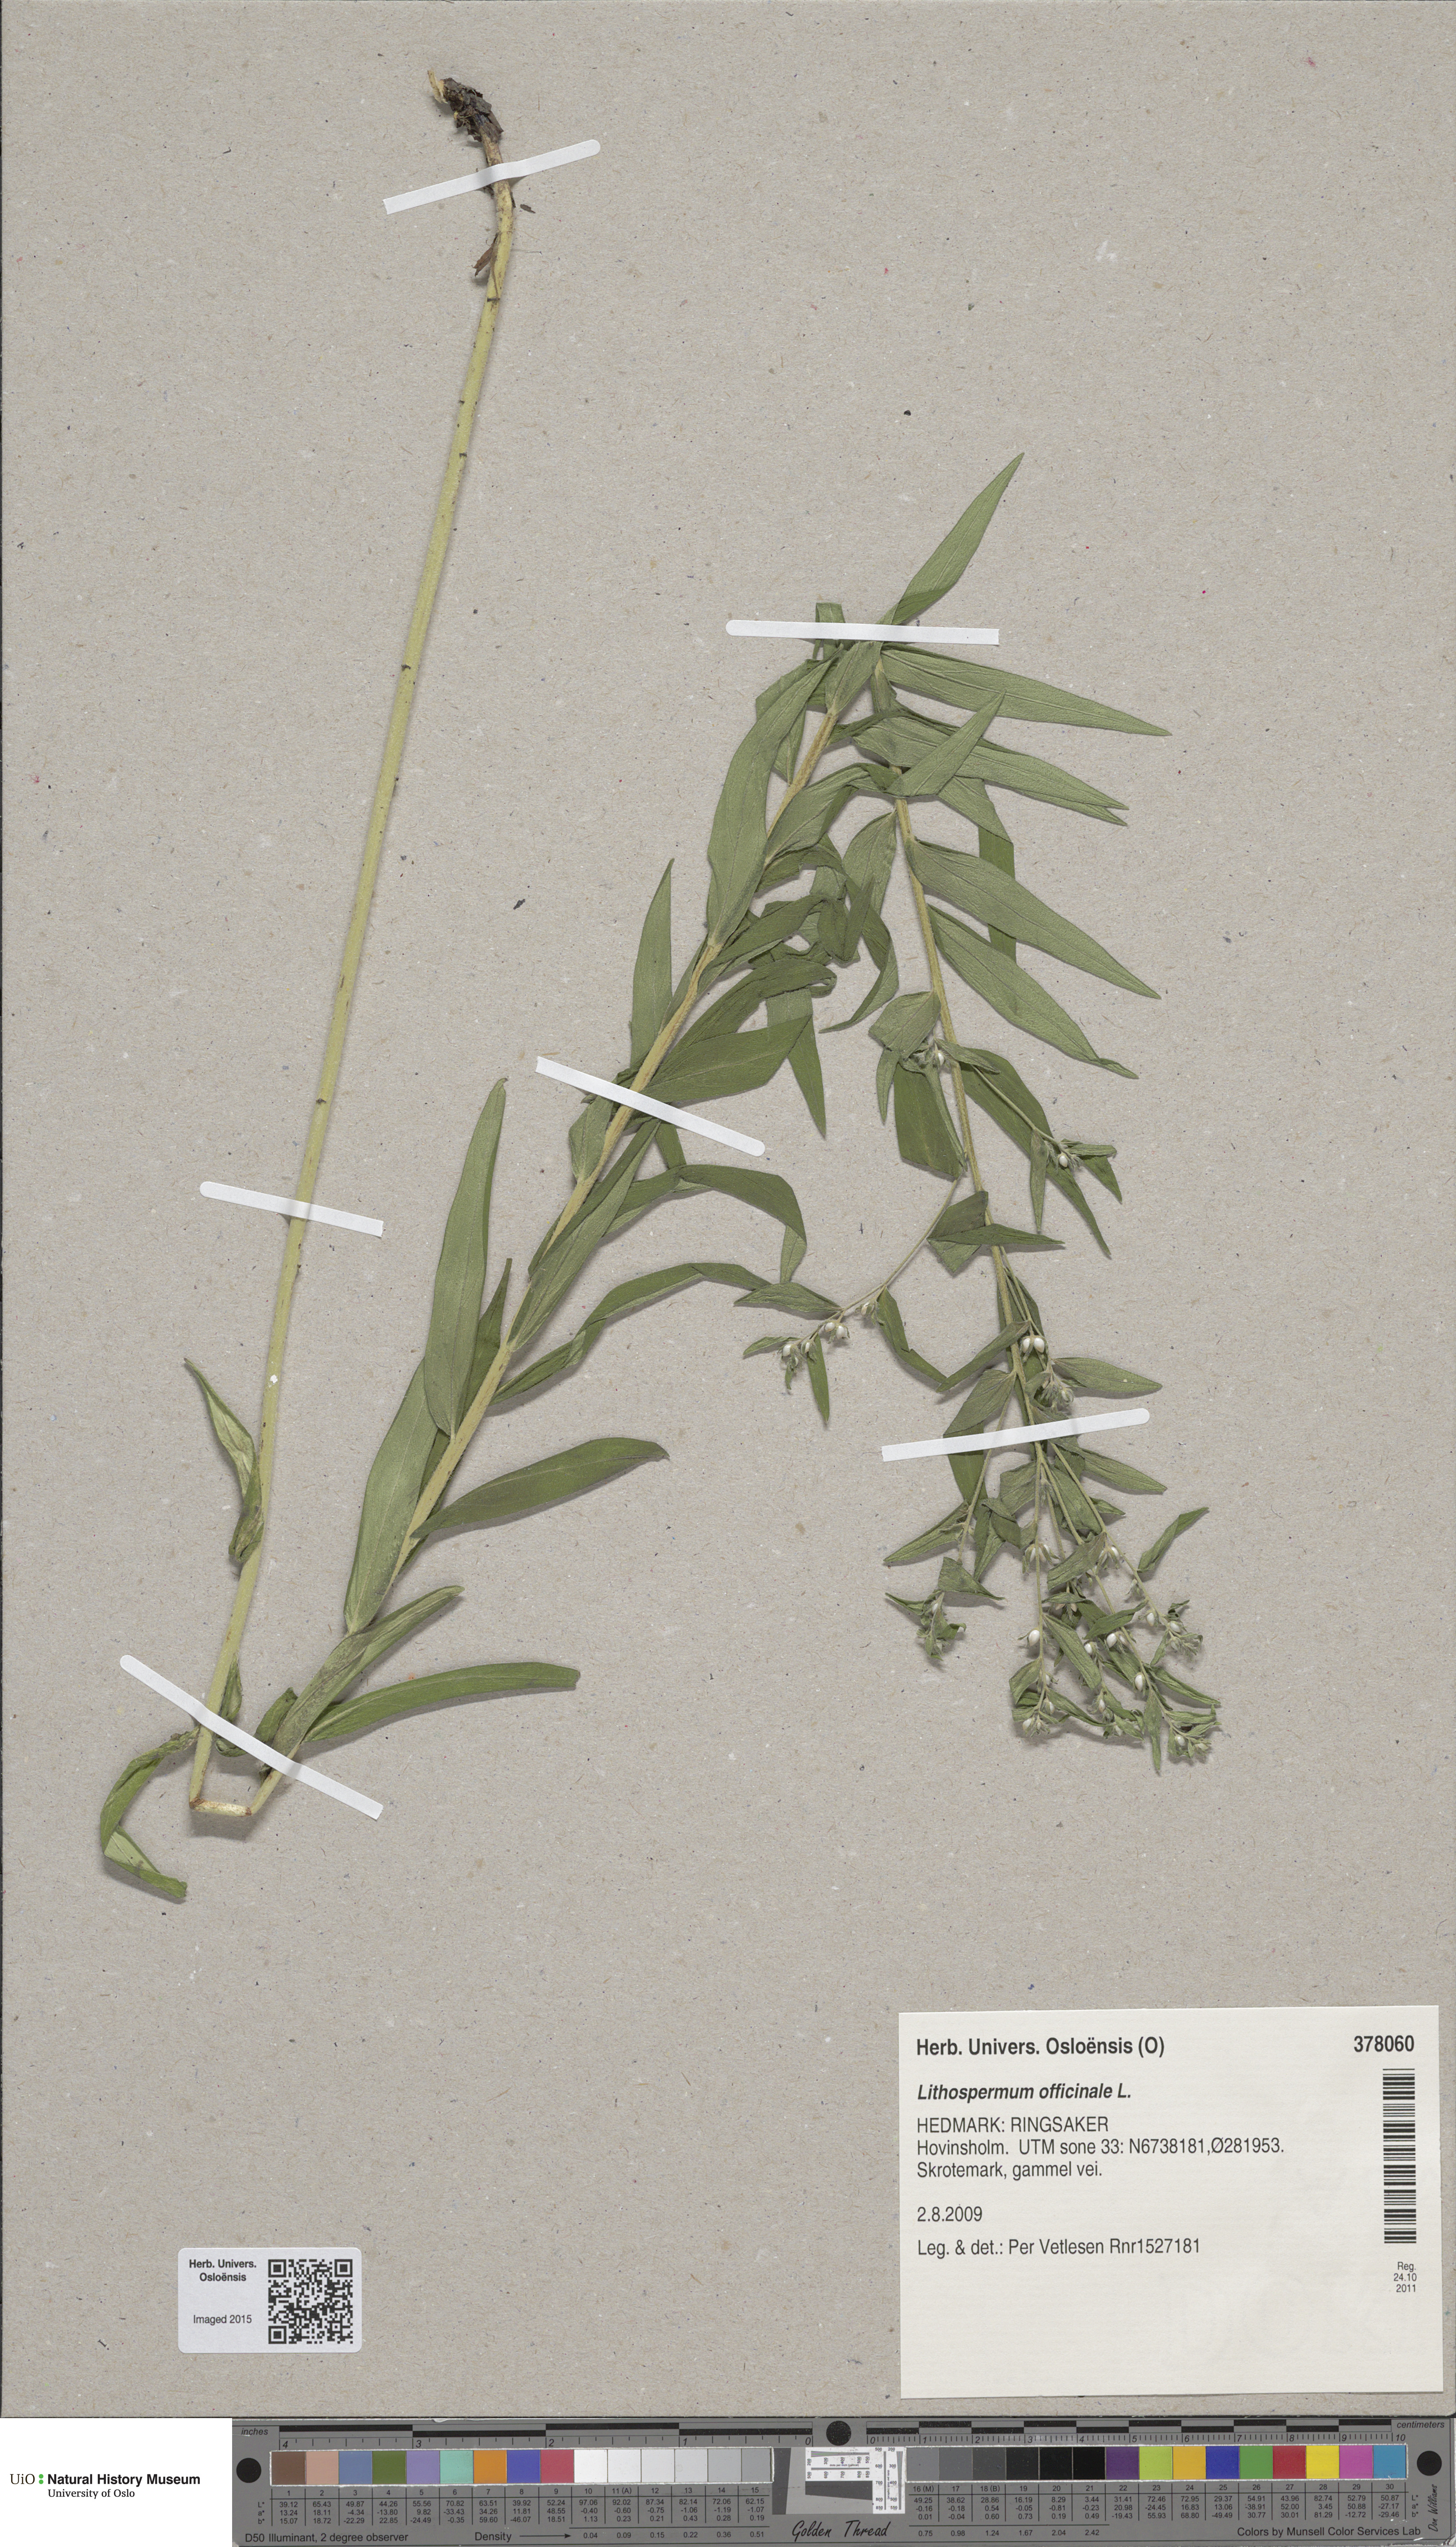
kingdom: Plantae
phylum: Tracheophyta
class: Magnoliopsida
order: Boraginales
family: Boraginaceae
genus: Lithospermum
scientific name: Lithospermum officinale
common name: Common gromwell
